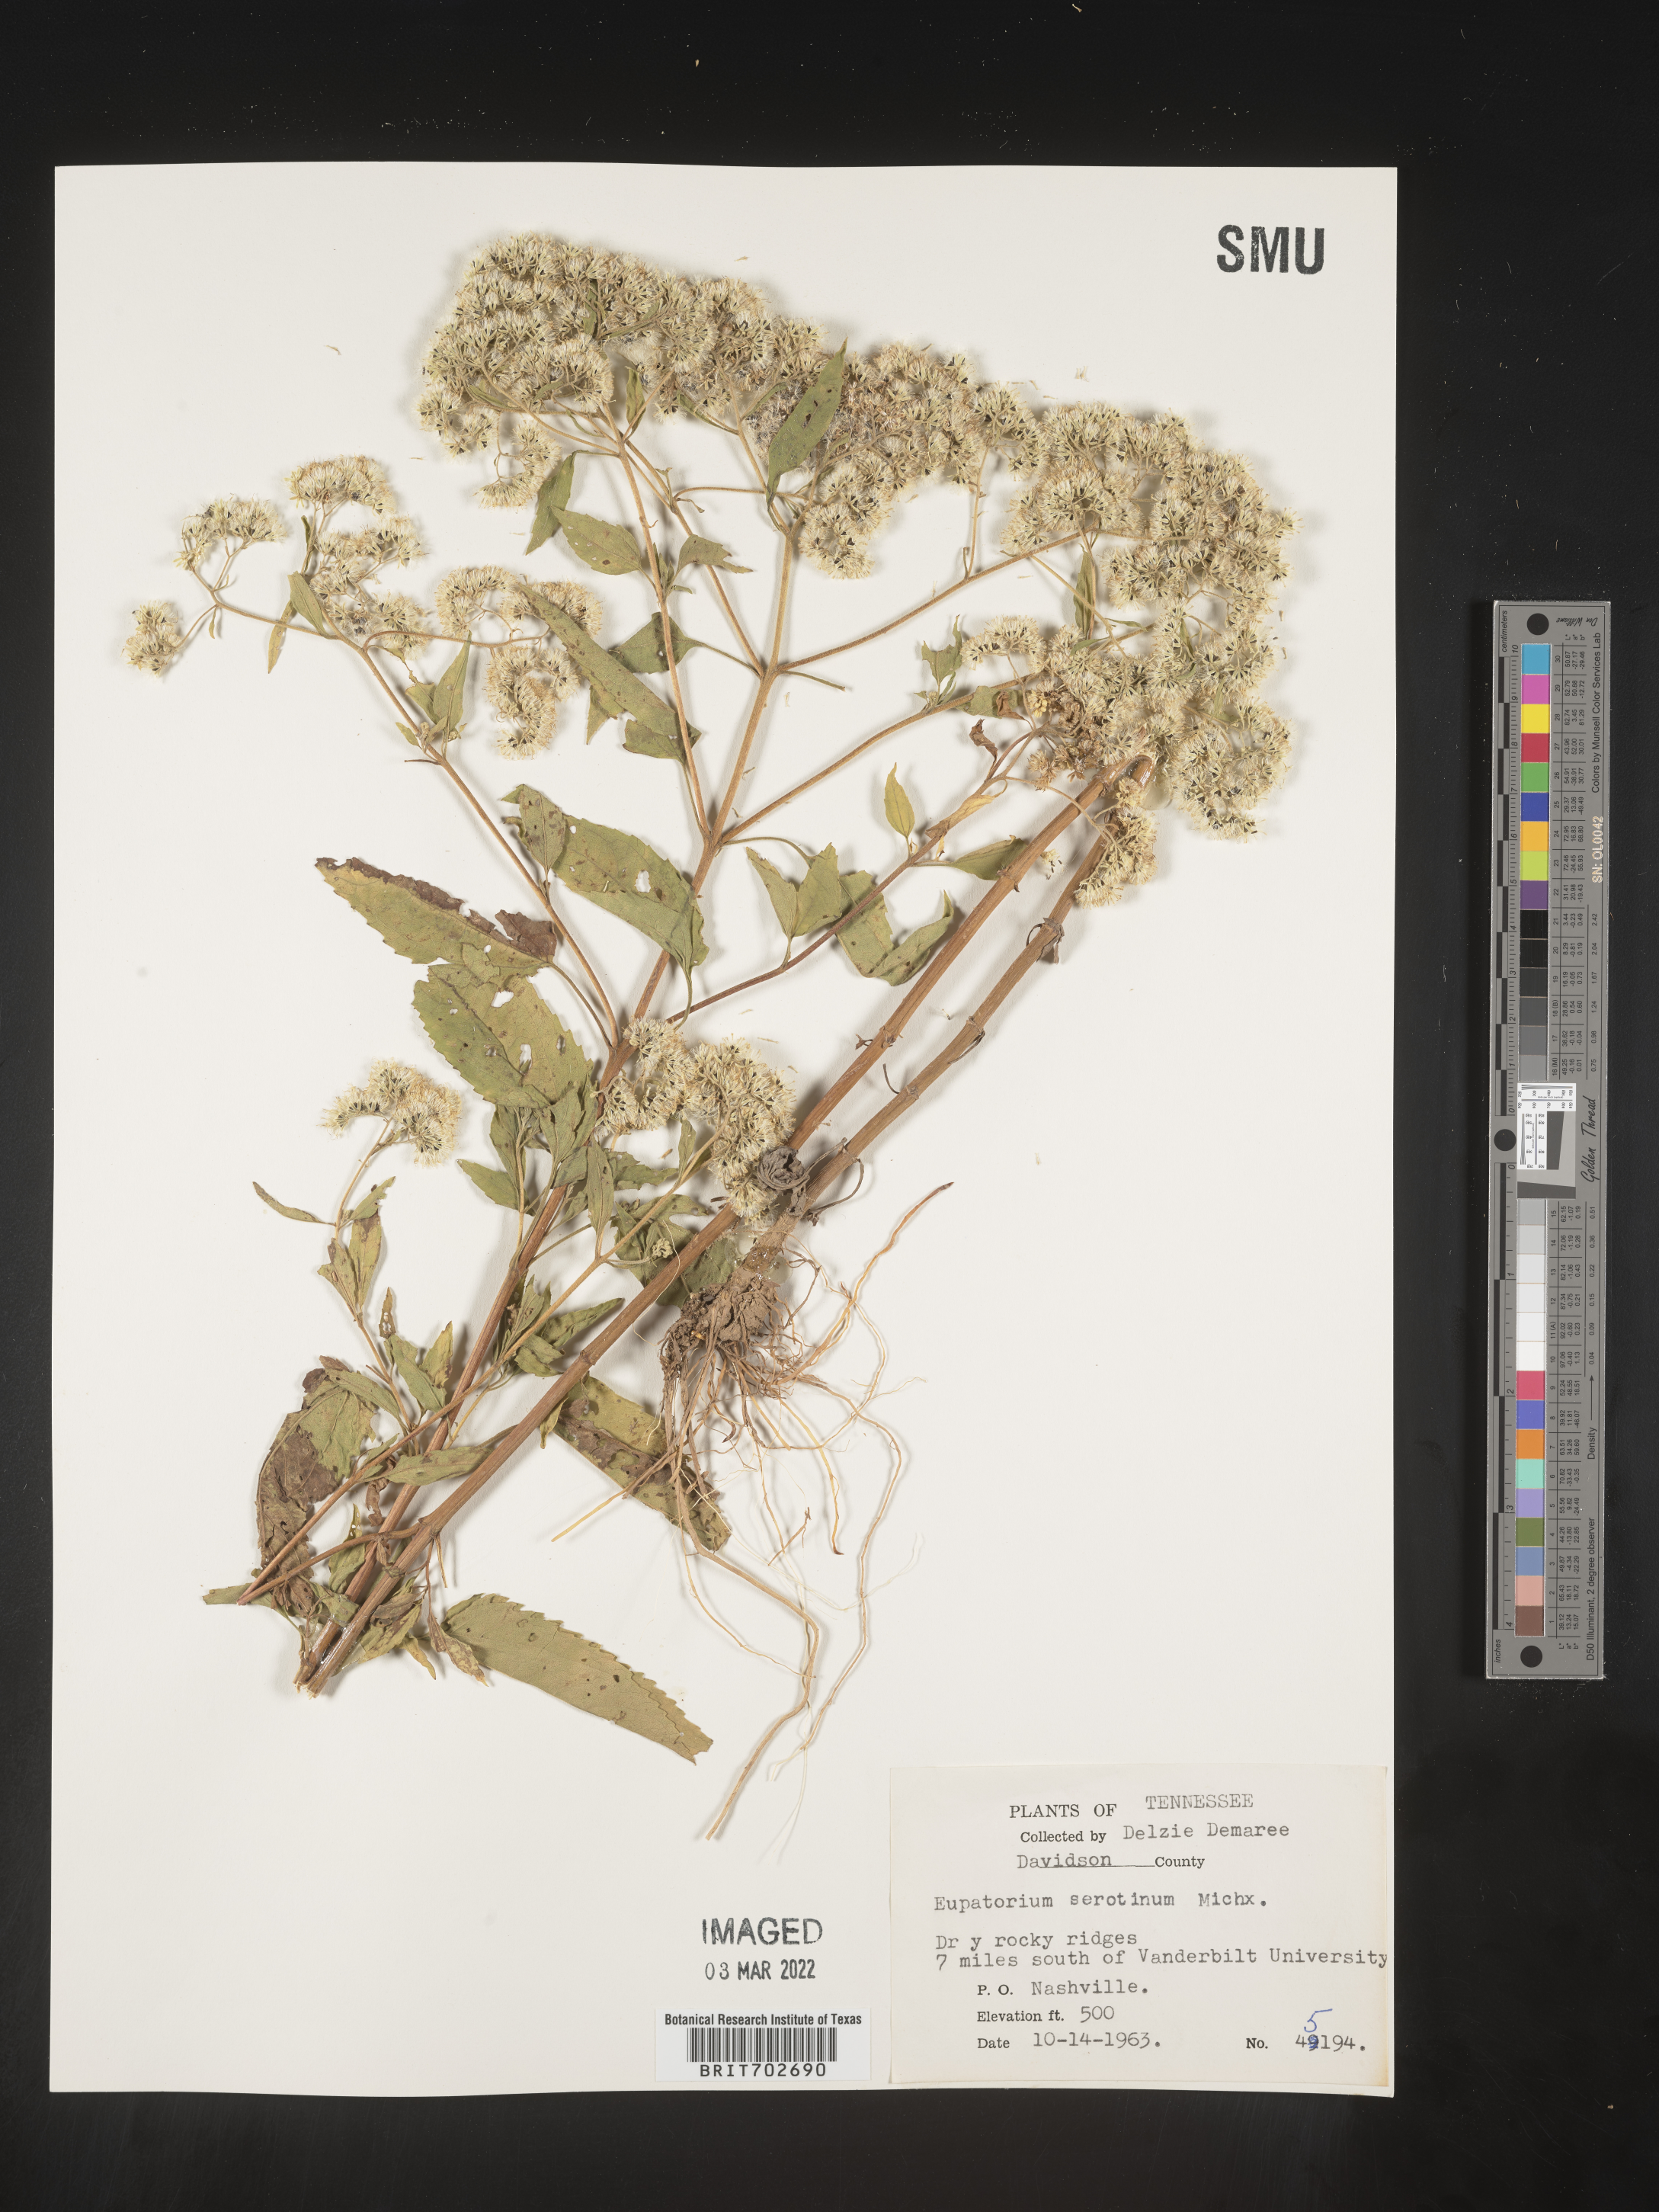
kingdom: Plantae
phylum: Tracheophyta
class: Magnoliopsida
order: Asterales
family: Asteraceae
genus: Eupatorium
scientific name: Eupatorium serotinum
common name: Late boneset
